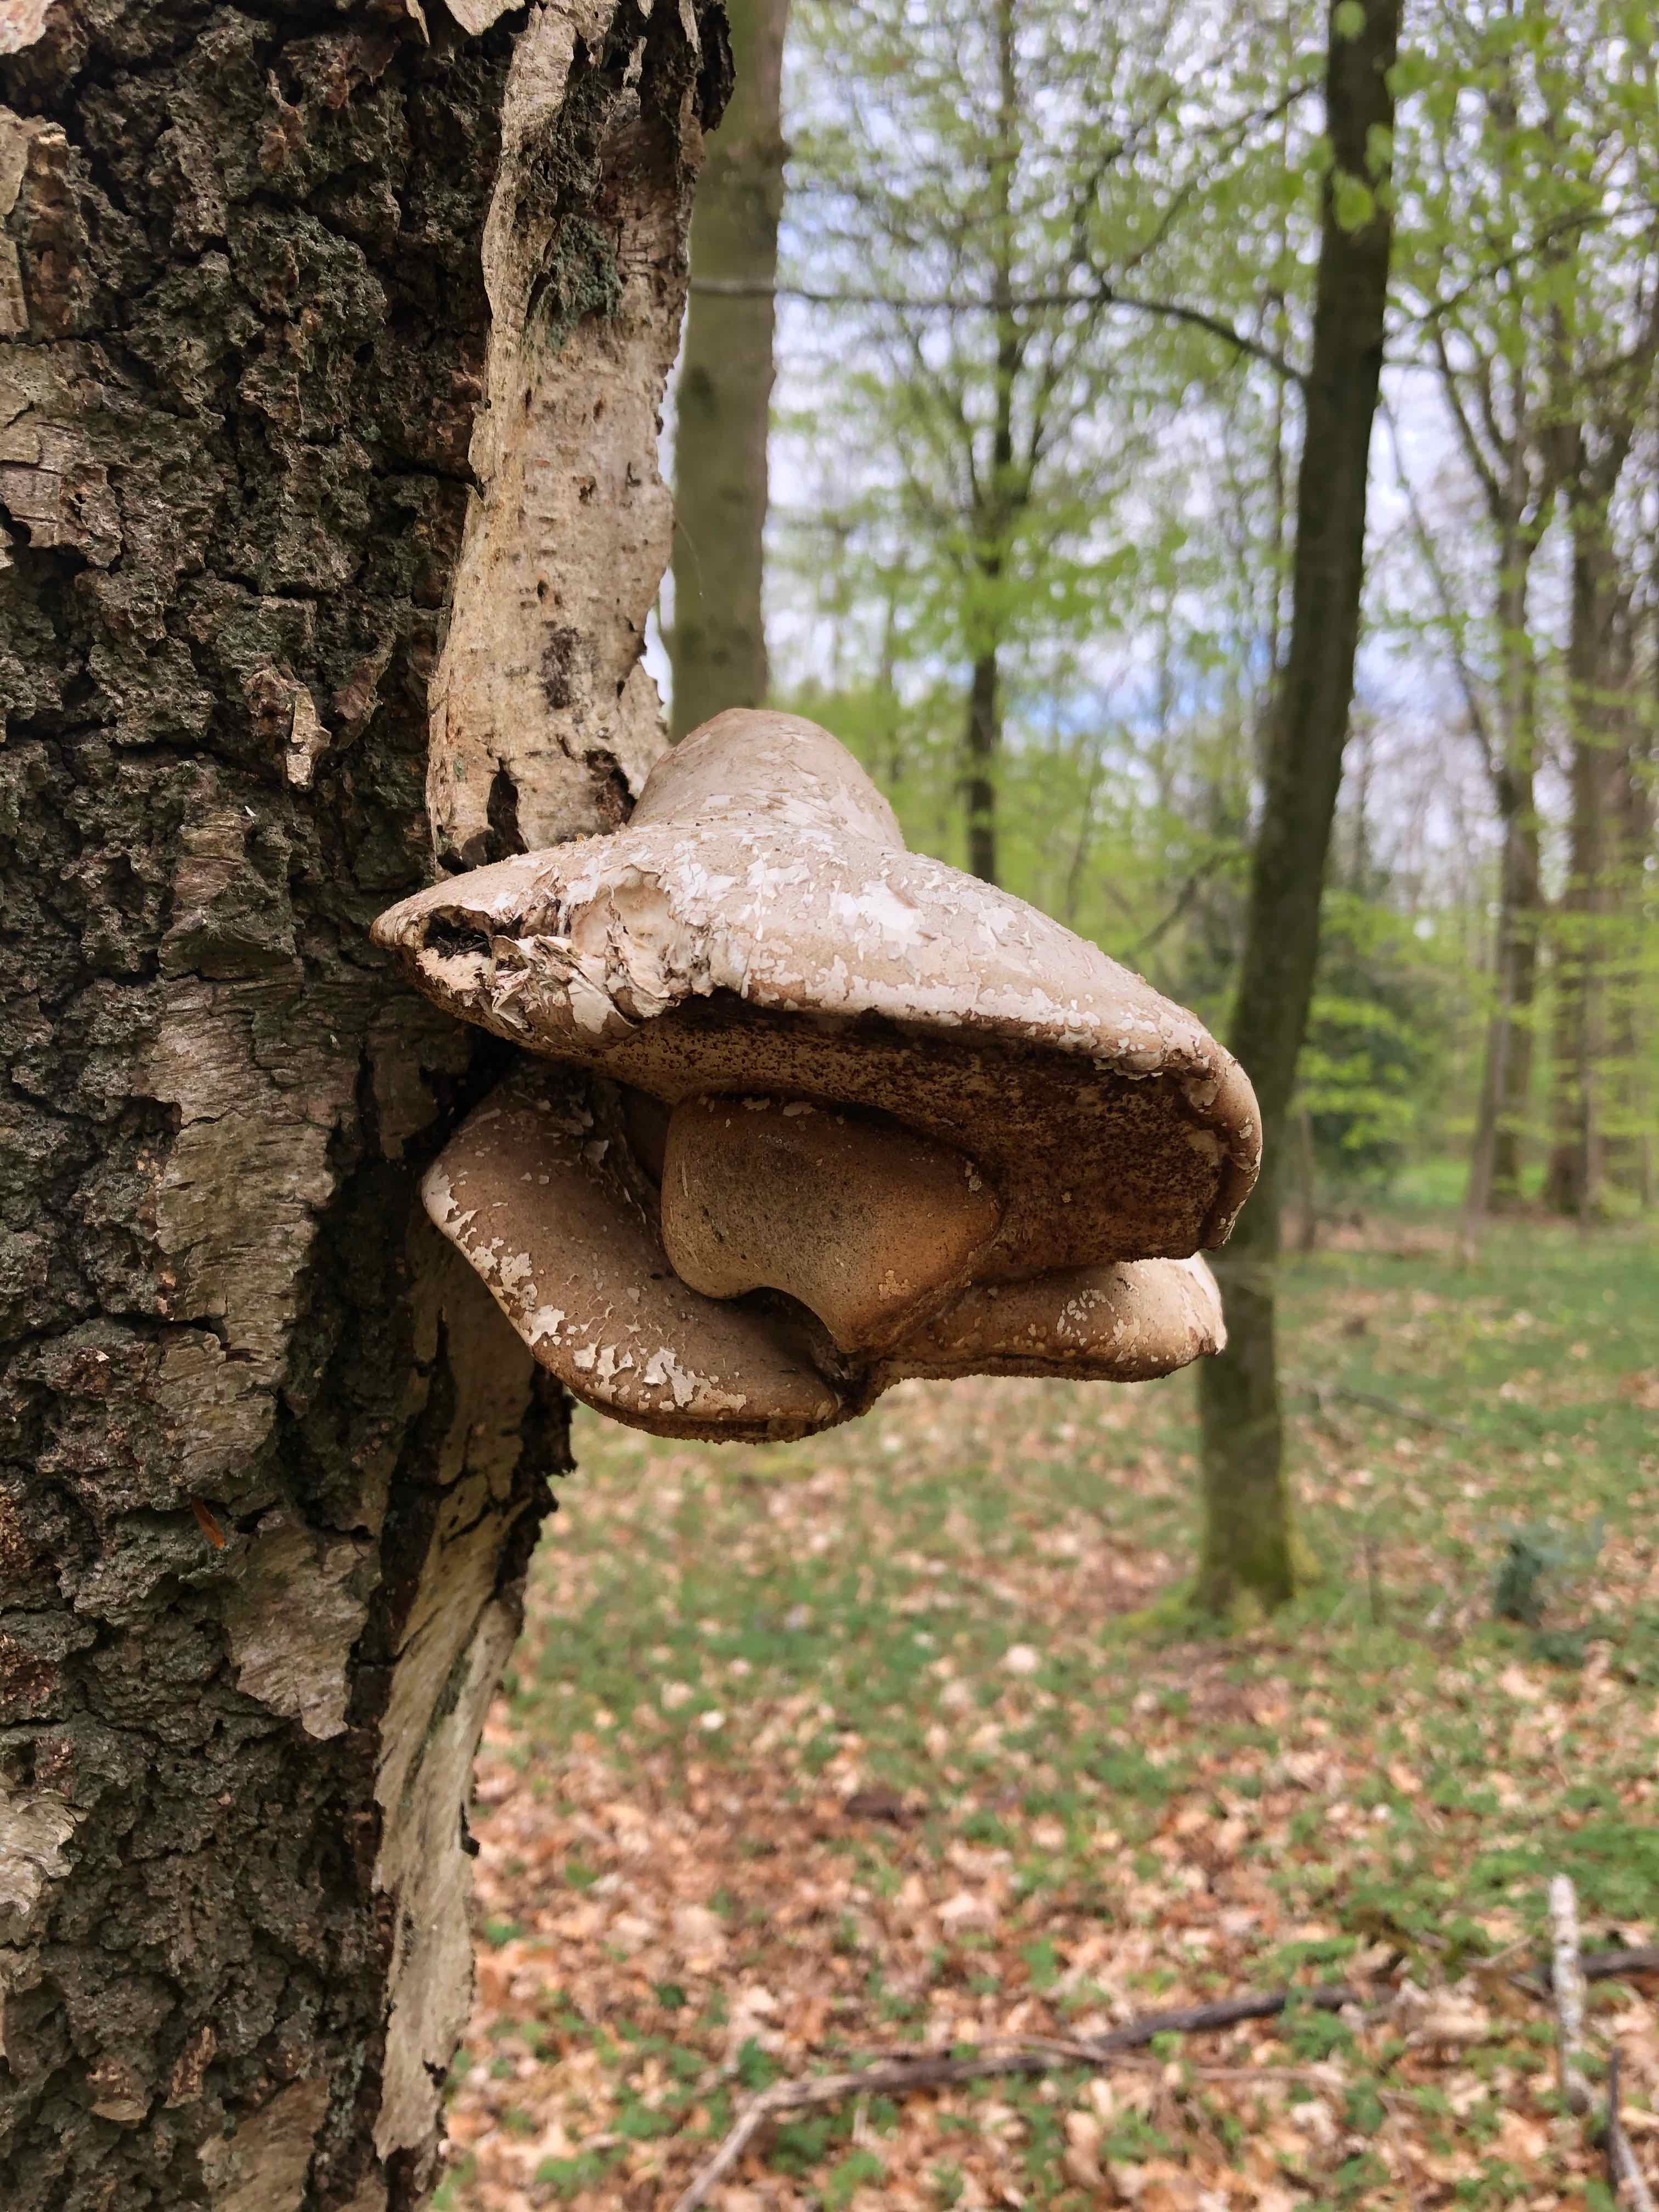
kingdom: Fungi
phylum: Basidiomycota
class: Agaricomycetes
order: Polyporales
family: Fomitopsidaceae
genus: Fomitopsis
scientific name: Fomitopsis betulina
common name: birkeporesvamp
